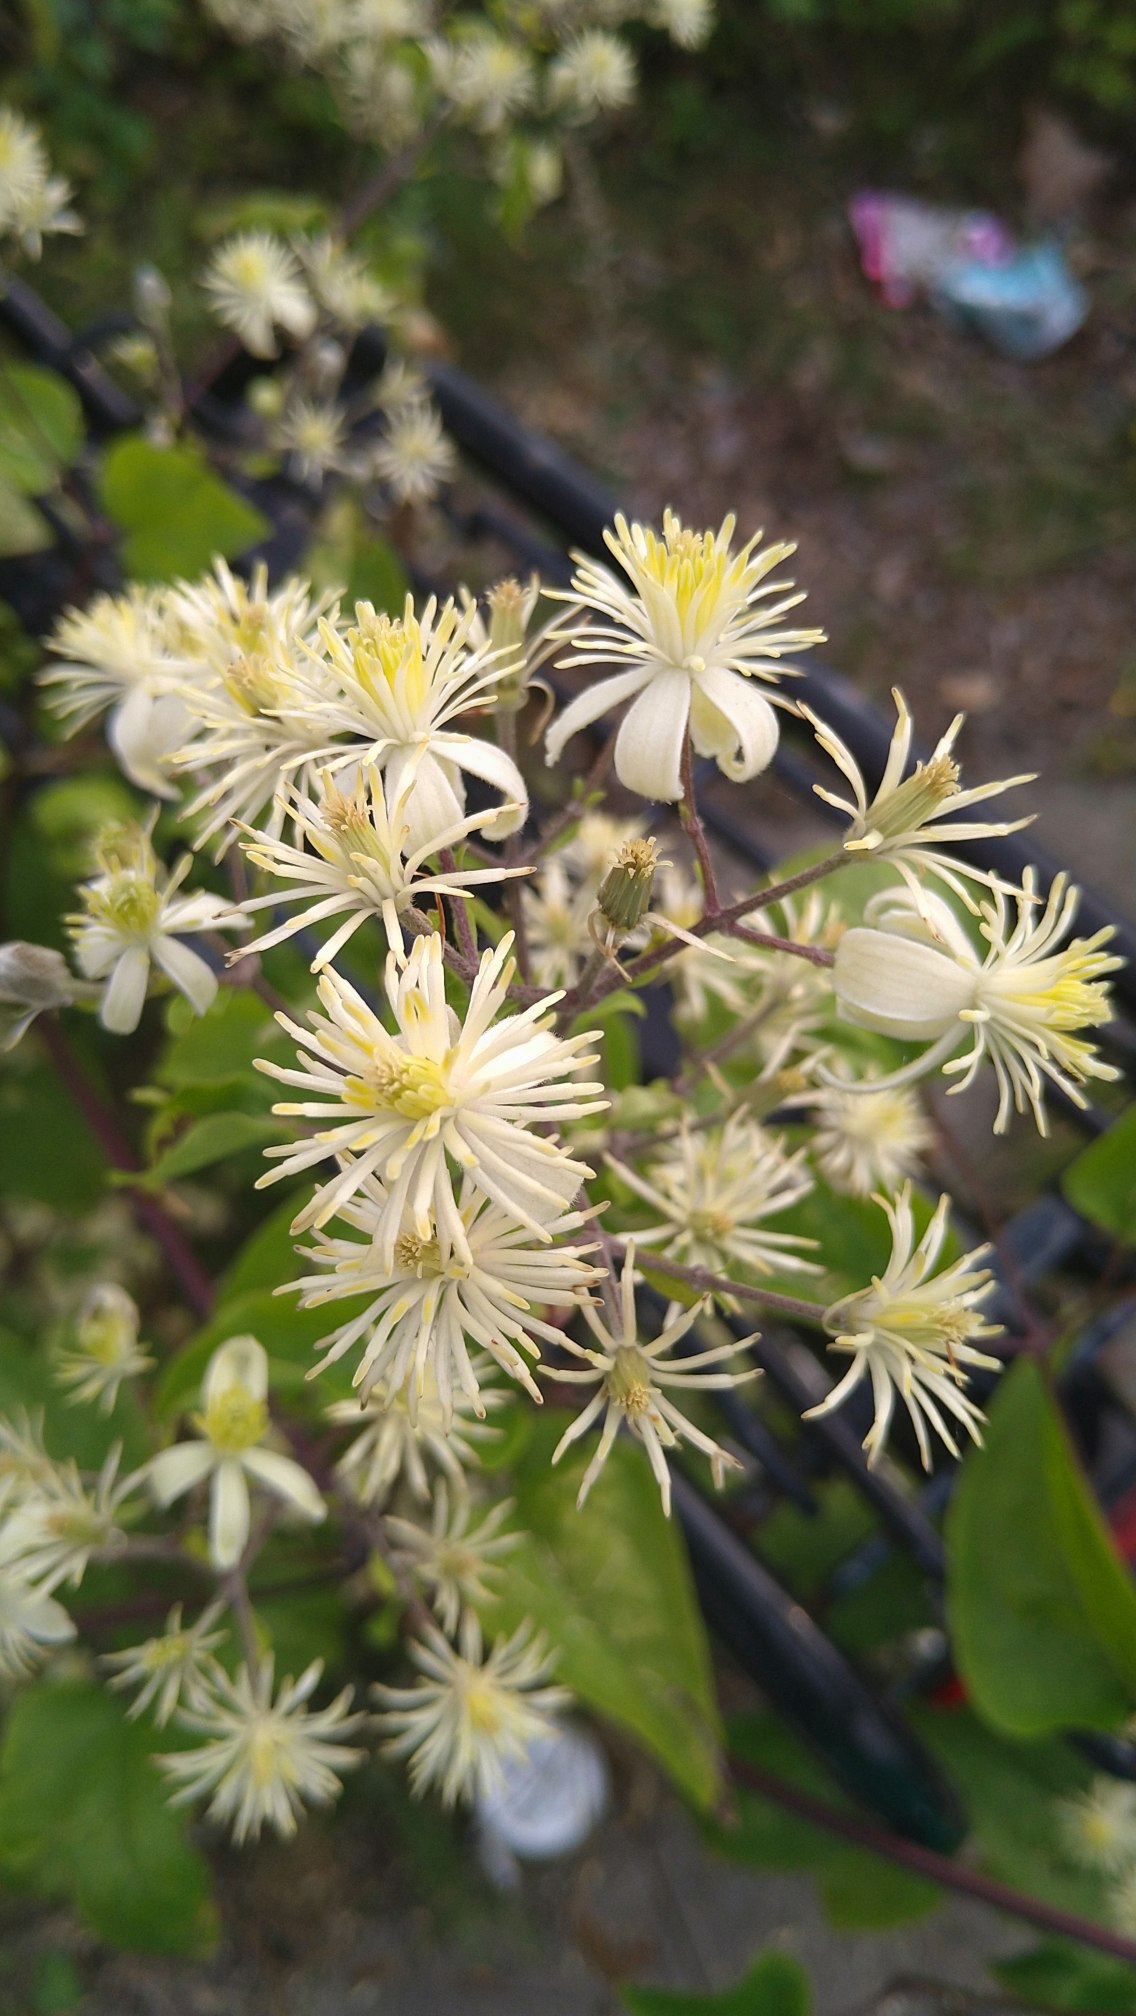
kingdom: Plantae
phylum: Tracheophyta
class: Magnoliopsida
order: Ranunculales
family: Ranunculaceae
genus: Clematis
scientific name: Clematis vitalba
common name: Skovranke
